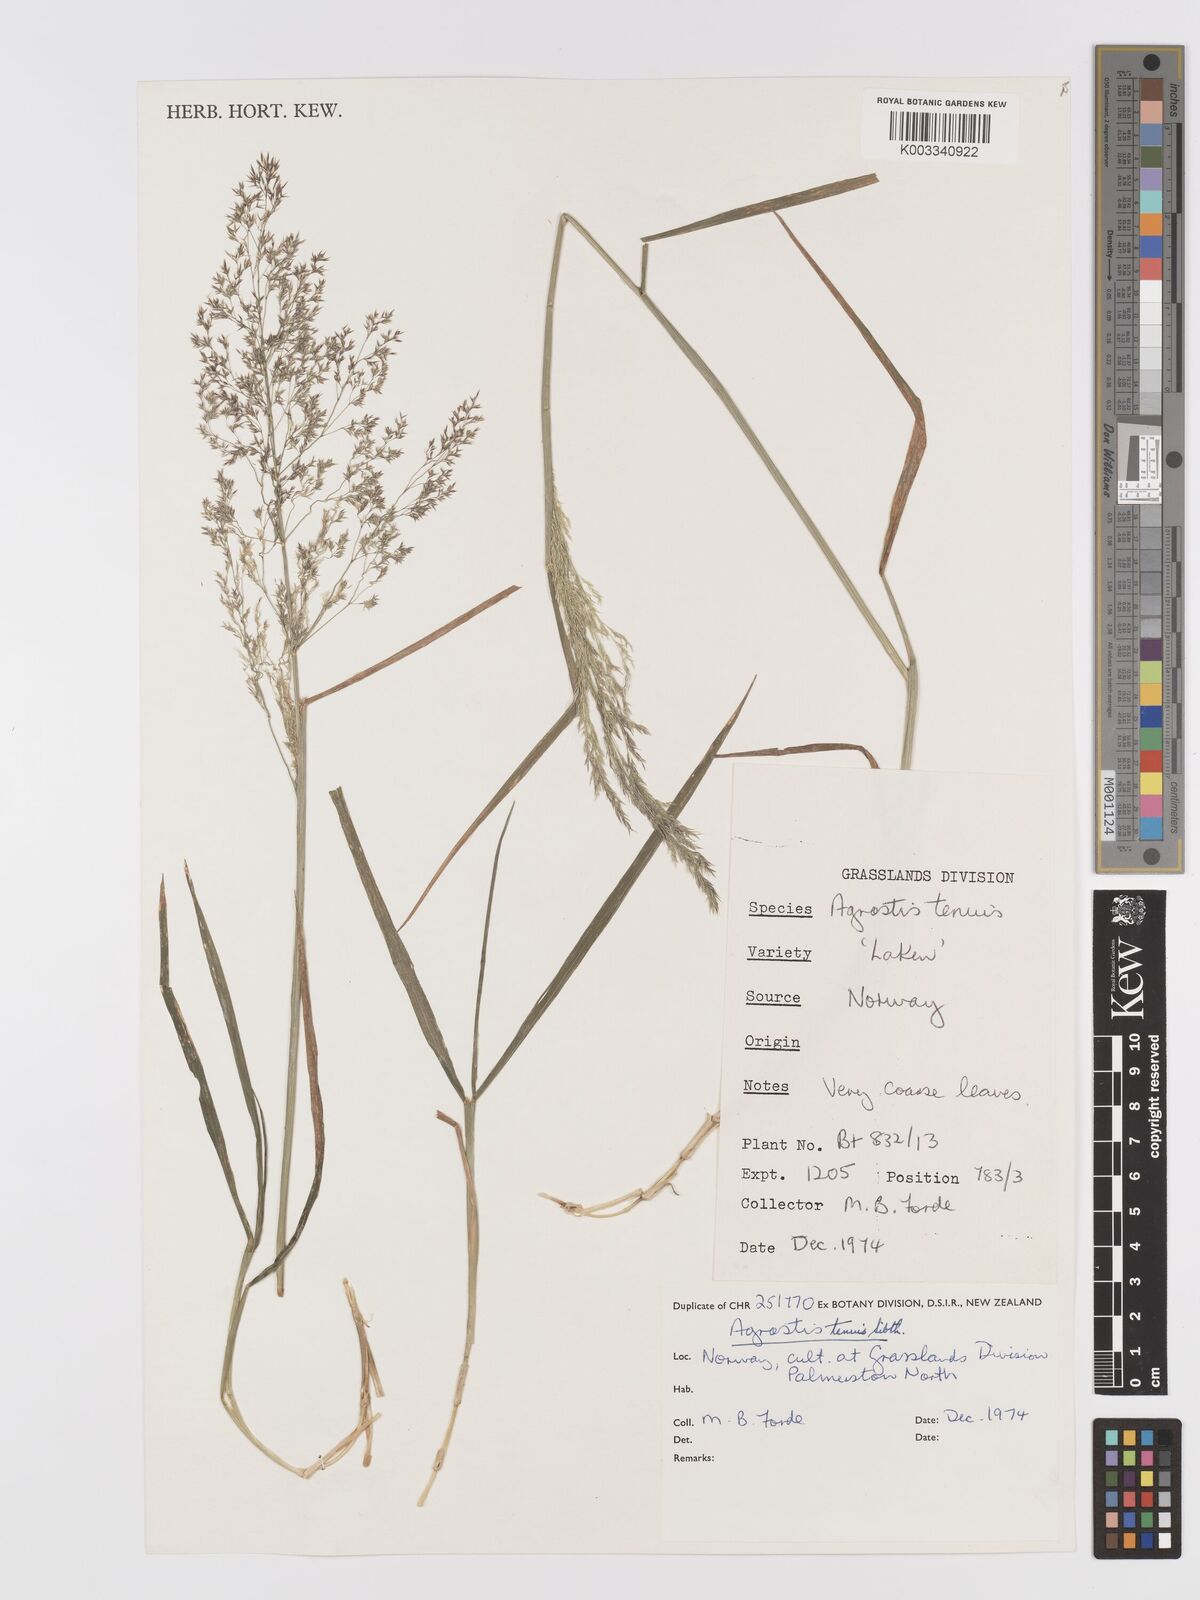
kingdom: Plantae
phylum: Tracheophyta
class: Liliopsida
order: Poales
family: Poaceae
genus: Agrostis
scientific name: Agrostis capillaris
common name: Colonial bentgrass
